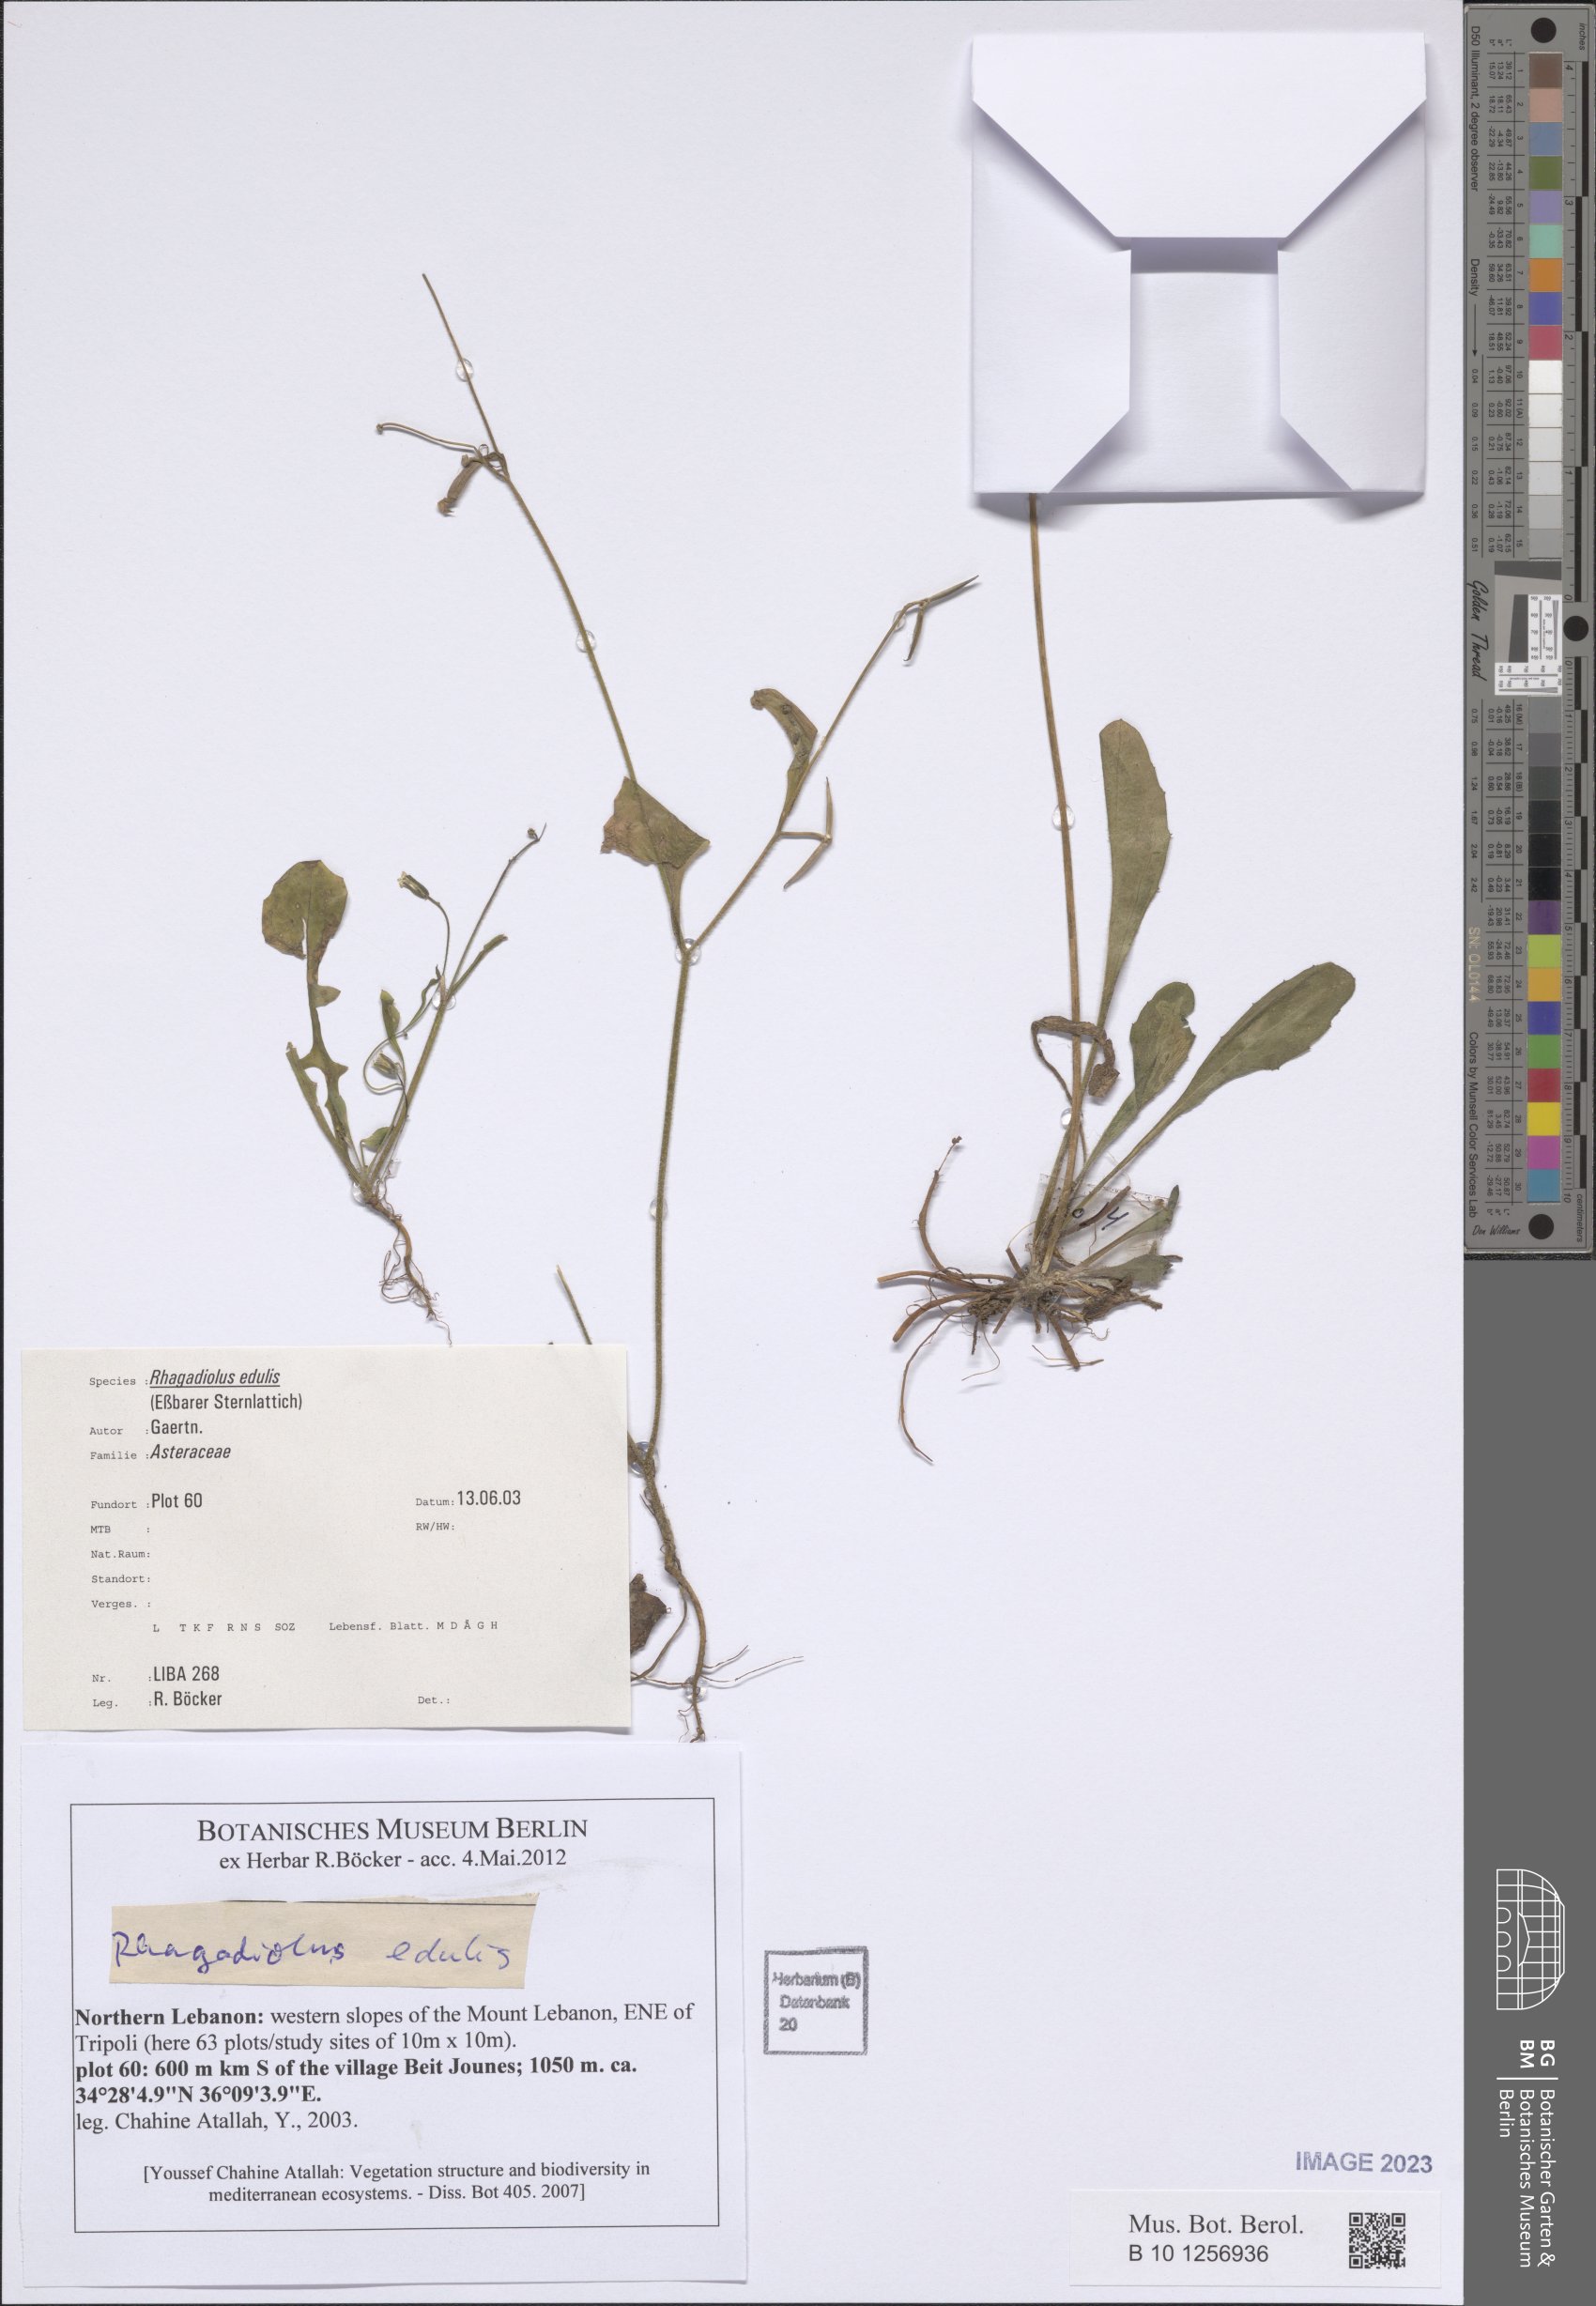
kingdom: Plantae
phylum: Tracheophyta
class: Magnoliopsida
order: Asterales
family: Asteraceae
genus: Rhagadiolus
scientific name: Rhagadiolus stellatus
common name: Star hawkbit
